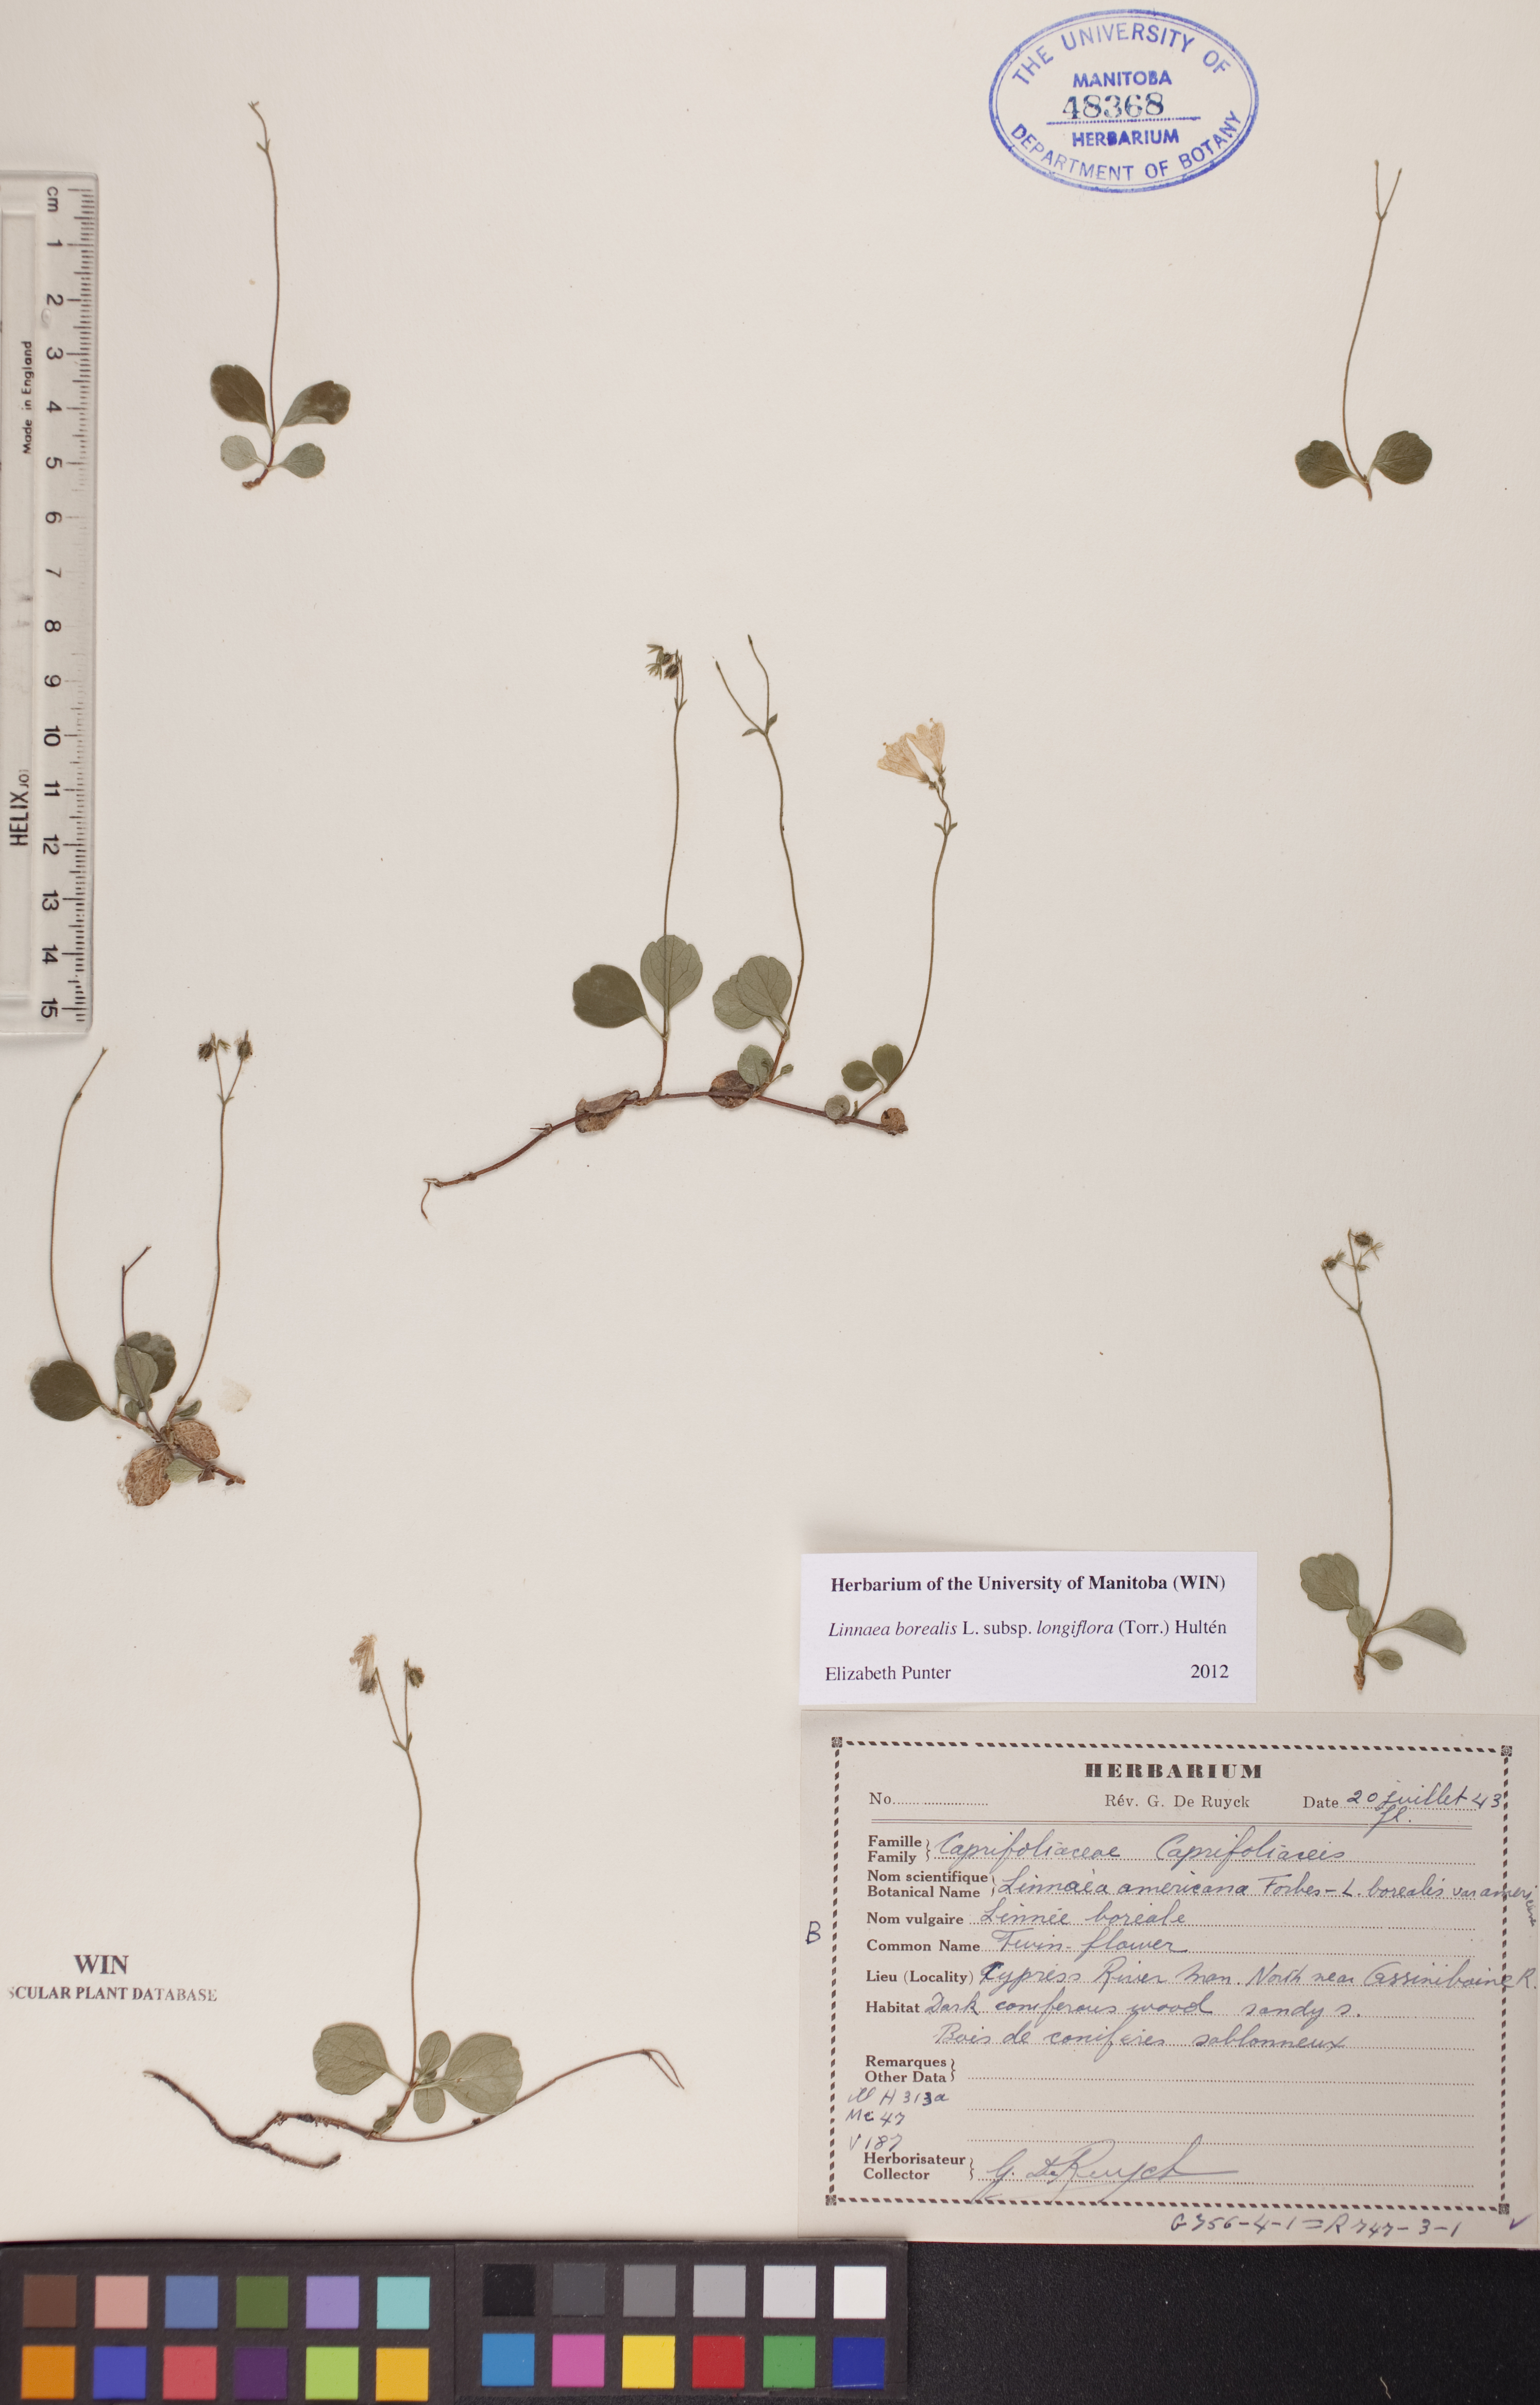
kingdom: Plantae
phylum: Tracheophyta
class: Magnoliopsida
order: Dipsacales
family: Caprifoliaceae
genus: Linnaea
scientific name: Linnaea borealis
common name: Twinflower
